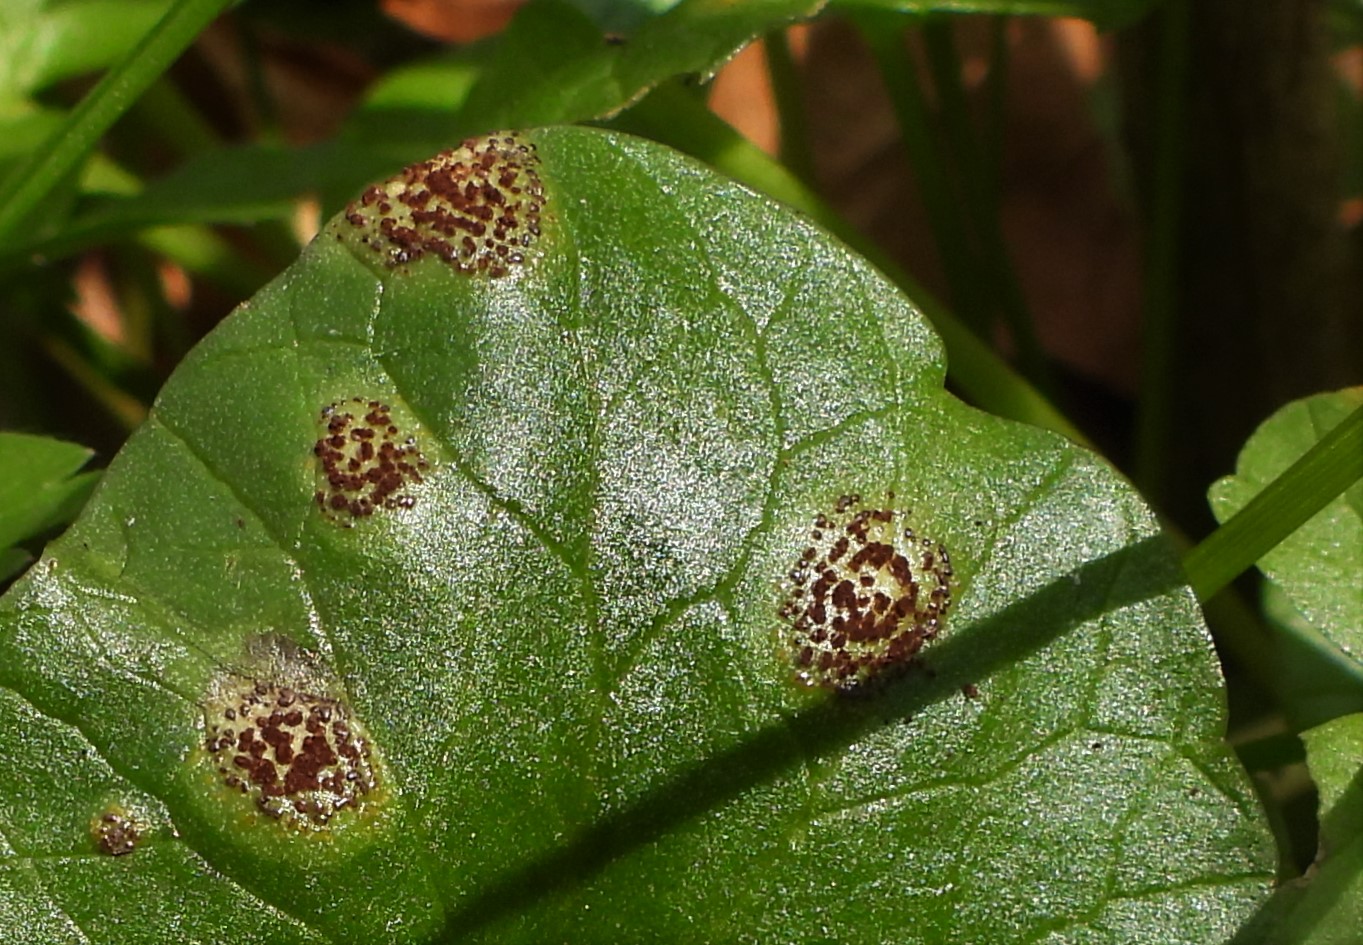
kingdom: Fungi
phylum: Basidiomycota
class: Pucciniomycetes
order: Pucciniales
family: Pucciniaceae
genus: Uromyces
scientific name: Uromyces ficariae
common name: vorterod-encellerust
